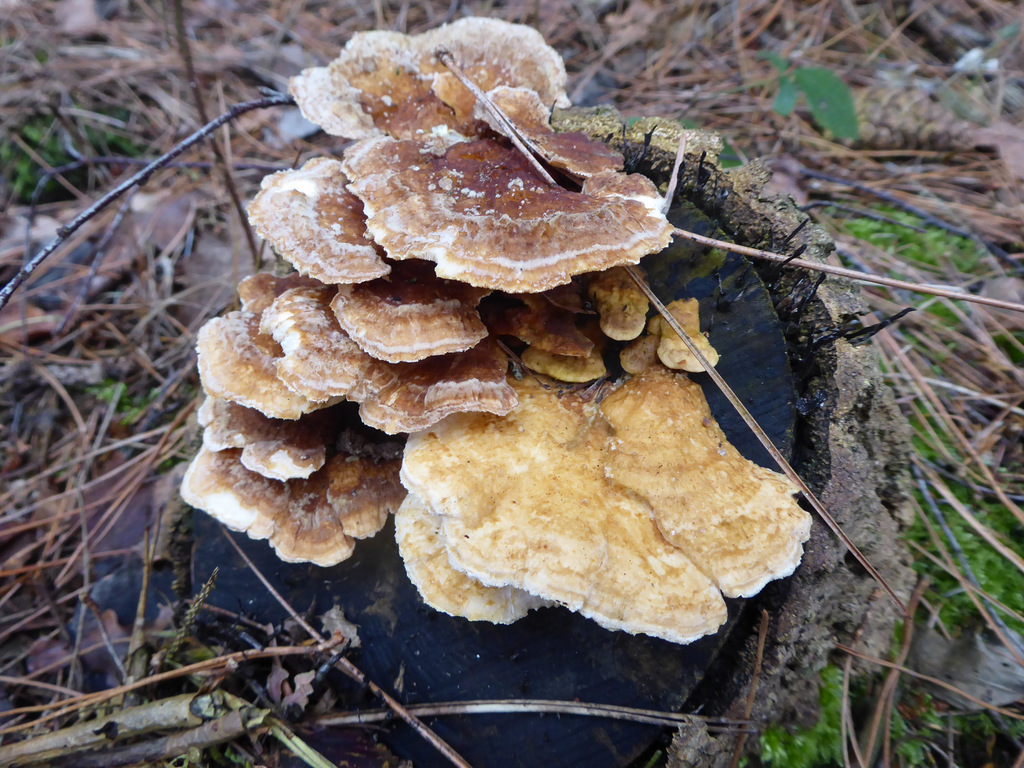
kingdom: Fungi
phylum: Basidiomycota
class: Agaricomycetes
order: Polyporales
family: Polyporaceae
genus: Trametes
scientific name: Trametes ochracea
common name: bæltet læderporesvamp
